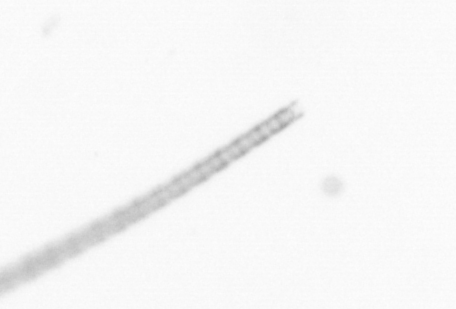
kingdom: Chromista
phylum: Ochrophyta
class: Bacillariophyceae
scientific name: Bacillariophyceae
